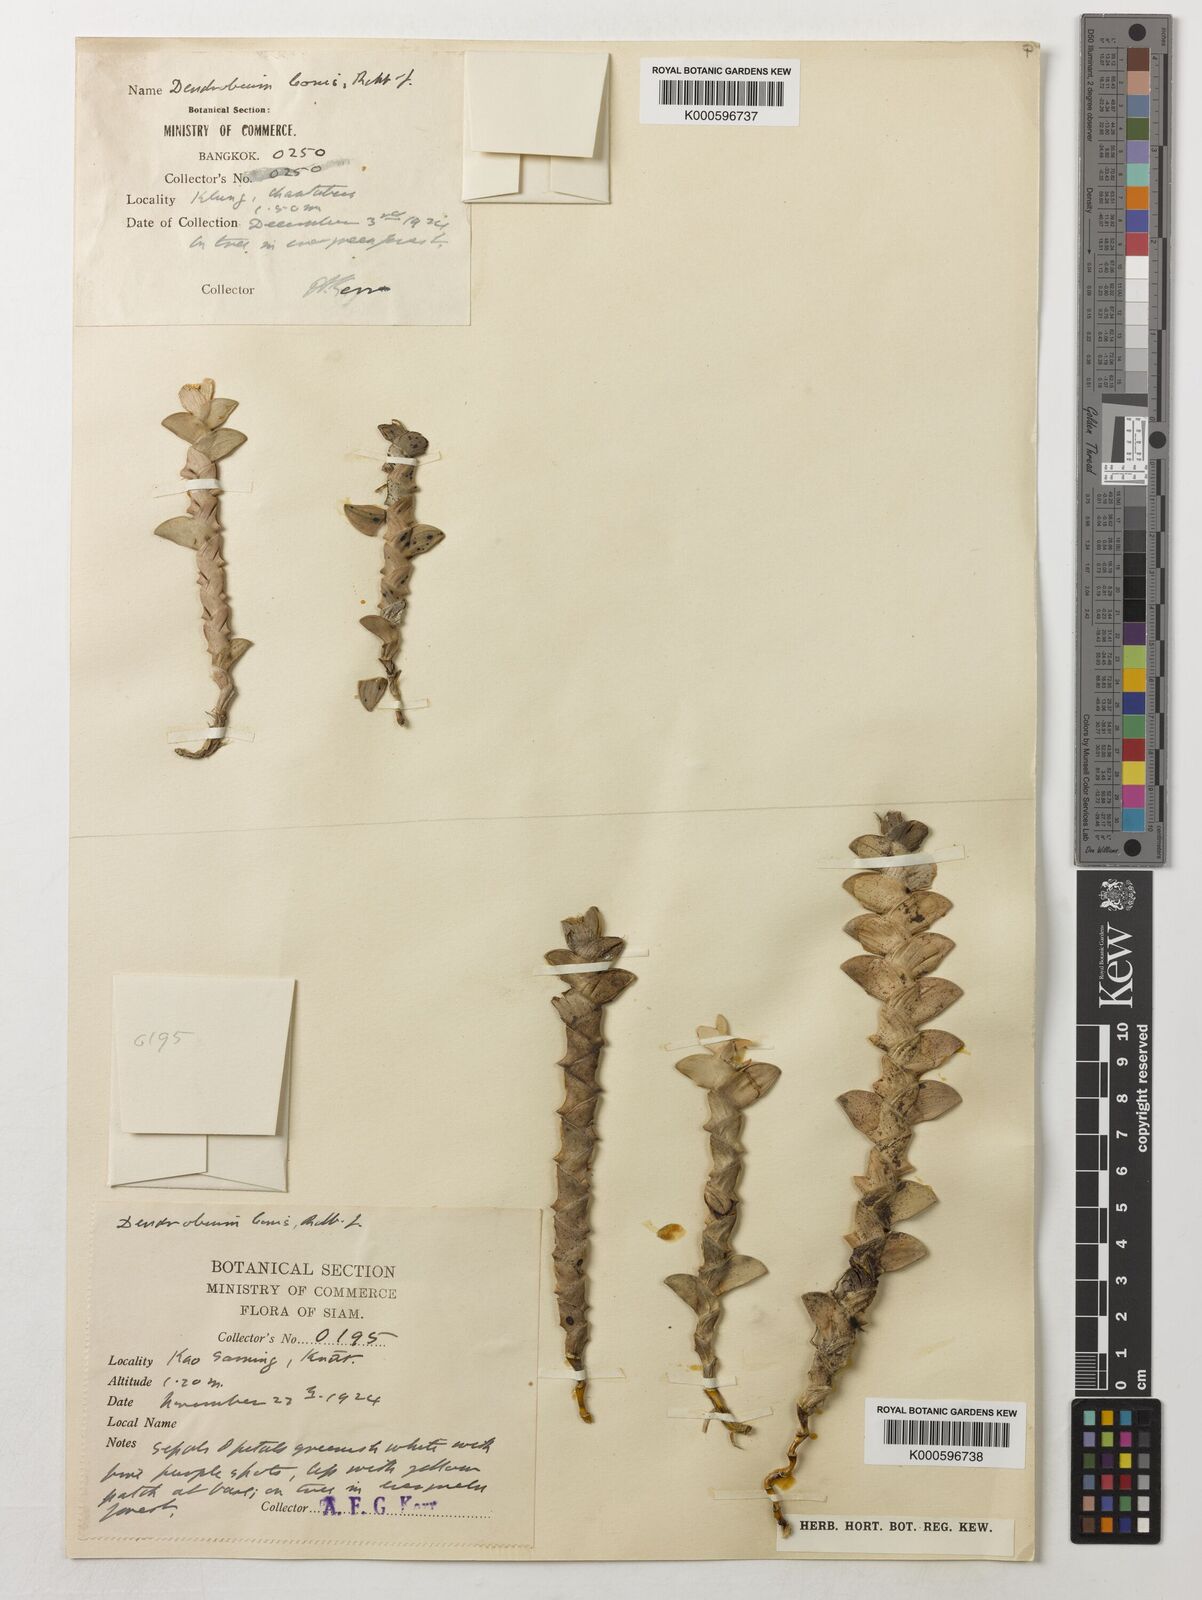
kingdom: Plantae
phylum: Tracheophyta
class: Liliopsida
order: Asparagales
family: Orchidaceae
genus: Dendrobium
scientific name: Dendrobium leonis
